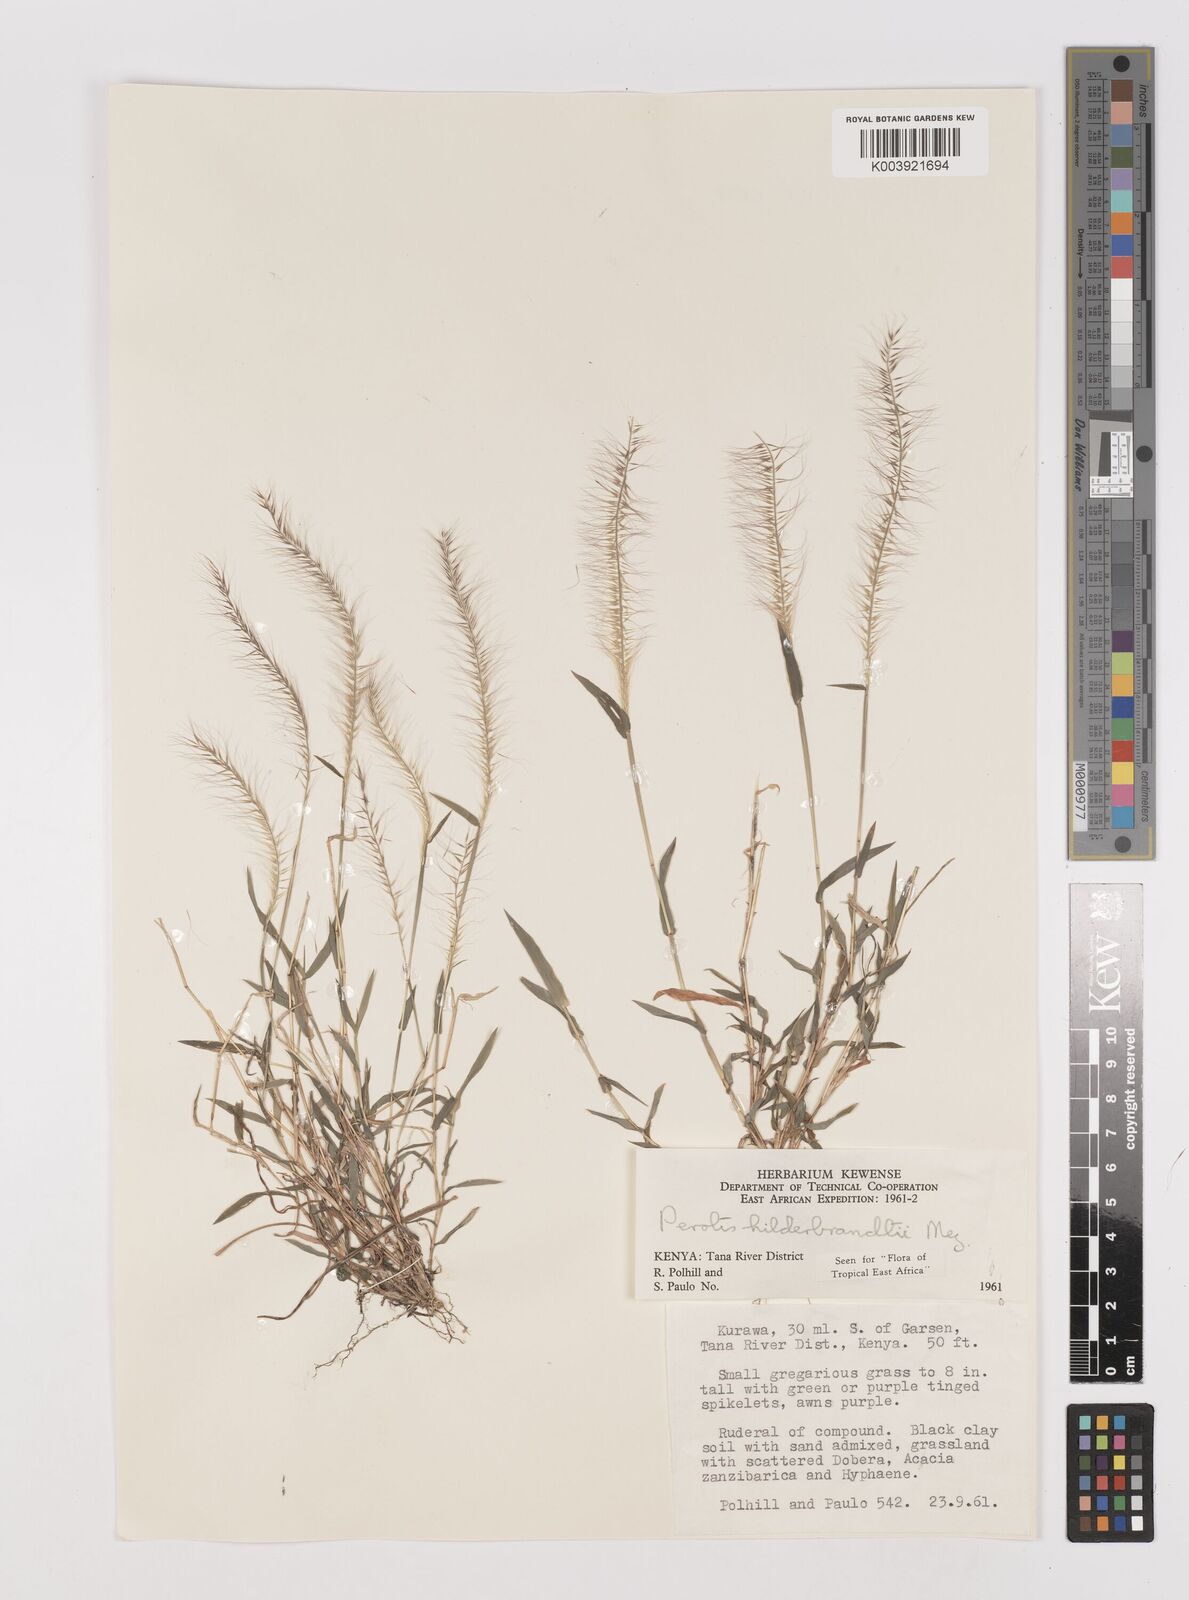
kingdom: Plantae
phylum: Tracheophyta
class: Liliopsida
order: Poales
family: Poaceae
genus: Perotis
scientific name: Perotis hildebrandtii
